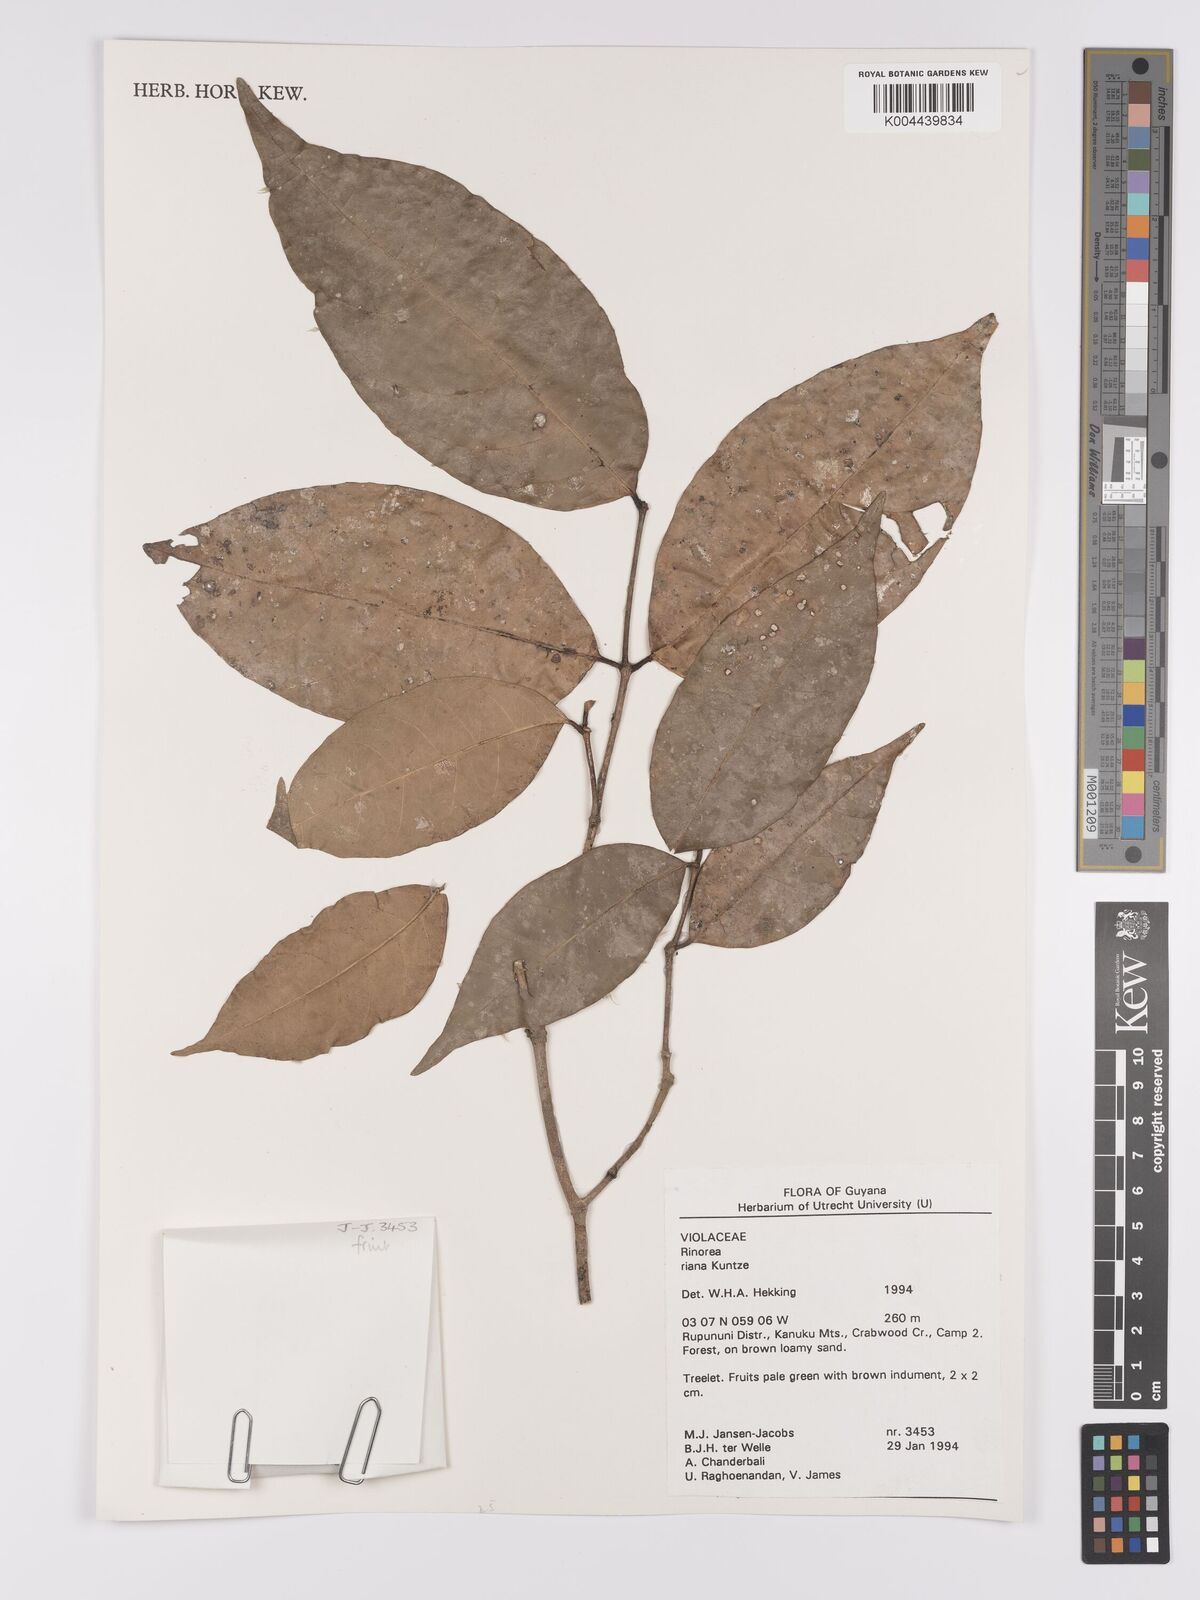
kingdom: Plantae
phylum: Tracheophyta
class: Magnoliopsida
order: Malpighiales
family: Violaceae
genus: Rinorea
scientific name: Rinorea riana
